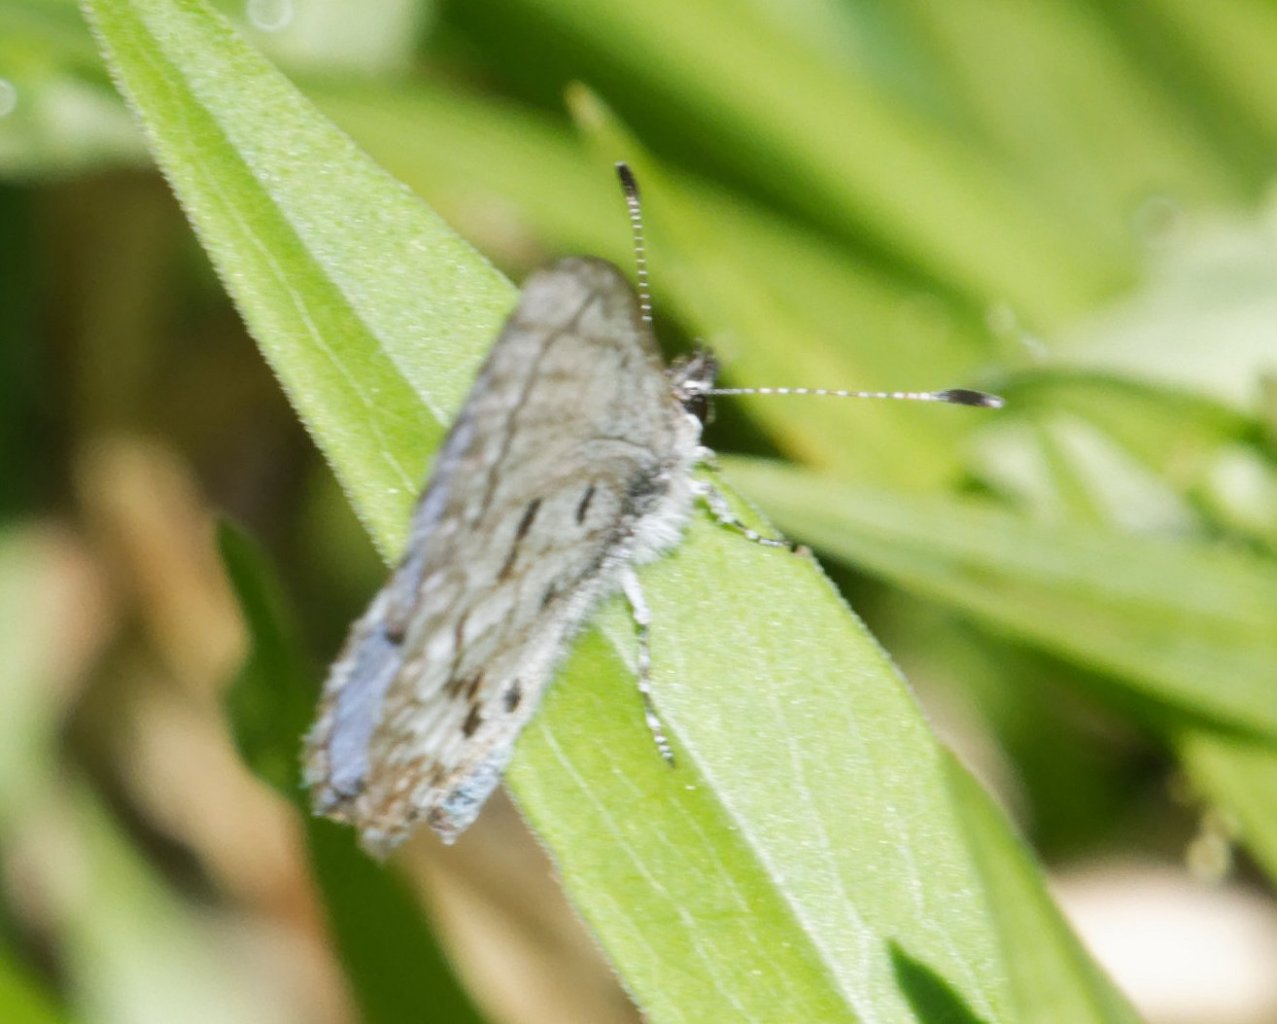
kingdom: Animalia
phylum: Arthropoda
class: Insecta
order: Lepidoptera
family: Lycaenidae
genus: Celastrina
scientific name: Celastrina
